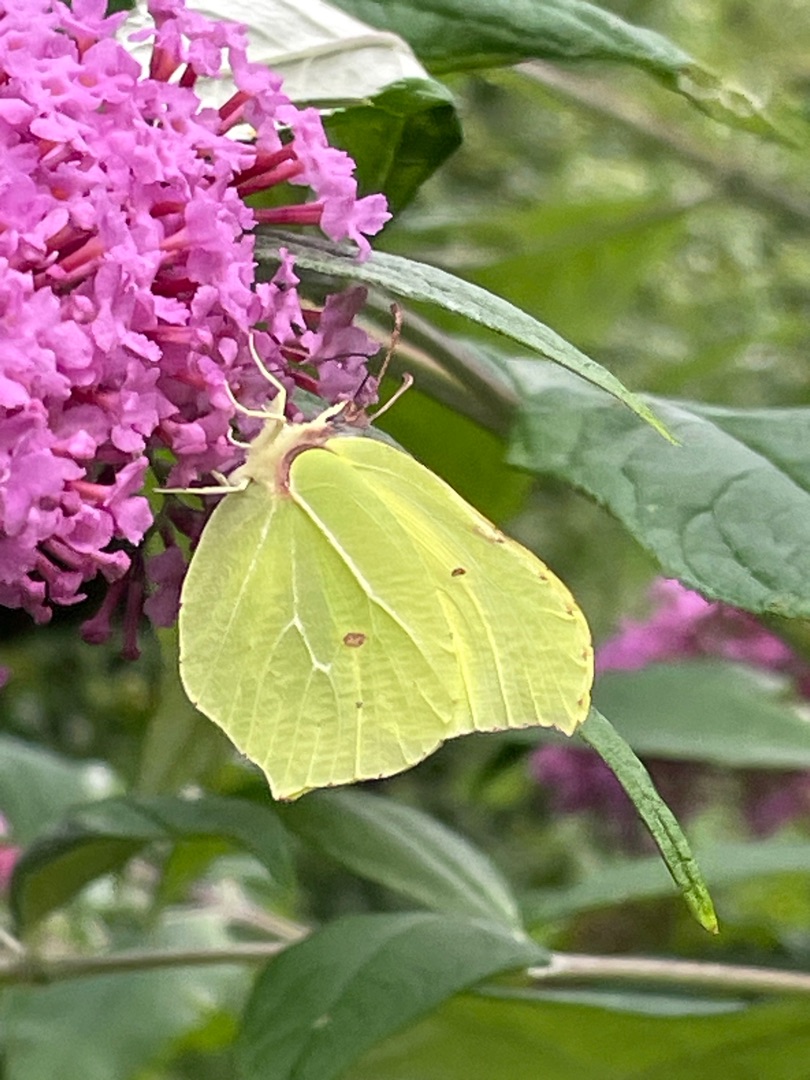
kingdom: Animalia
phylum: Arthropoda
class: Insecta
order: Lepidoptera
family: Pieridae
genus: Gonepteryx
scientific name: Gonepteryx rhamni
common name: Citronsommerfugl
